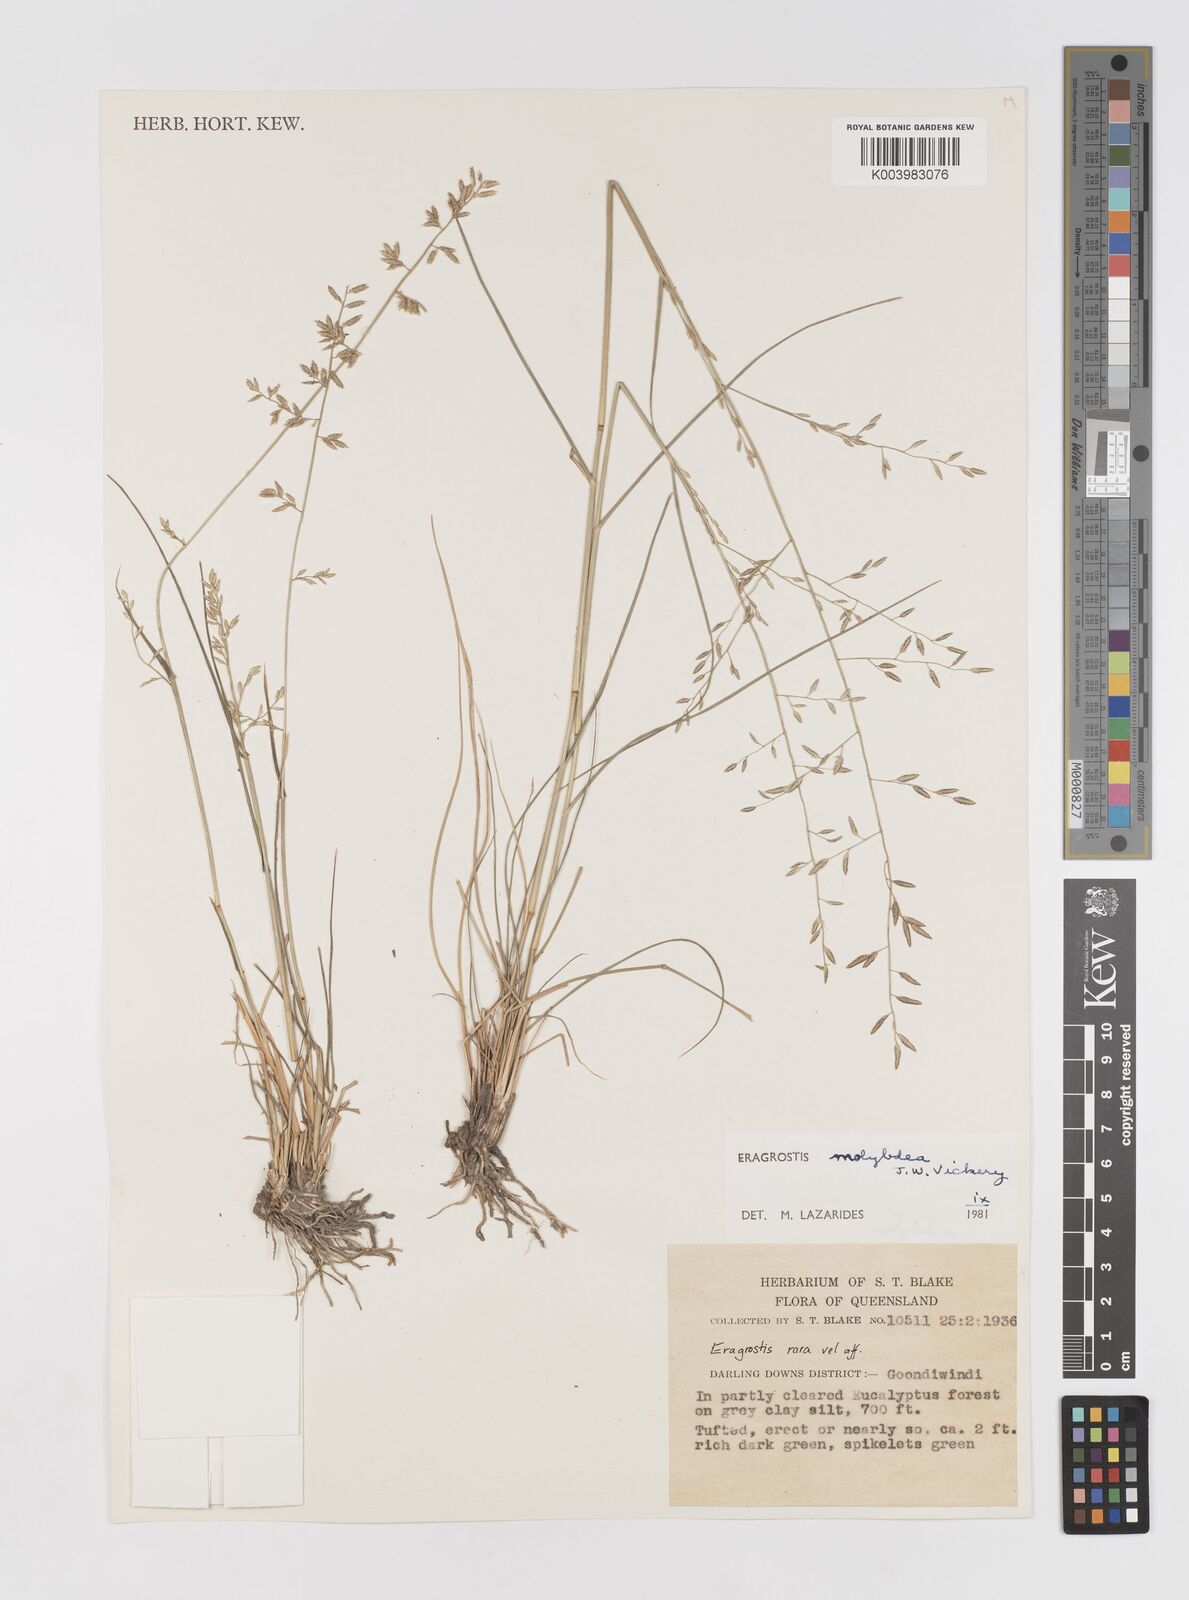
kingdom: Plantae
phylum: Tracheophyta
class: Liliopsida
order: Poales
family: Poaceae
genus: Eragrostis
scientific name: Eragrostis leptostachya
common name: Australian lovegrass
